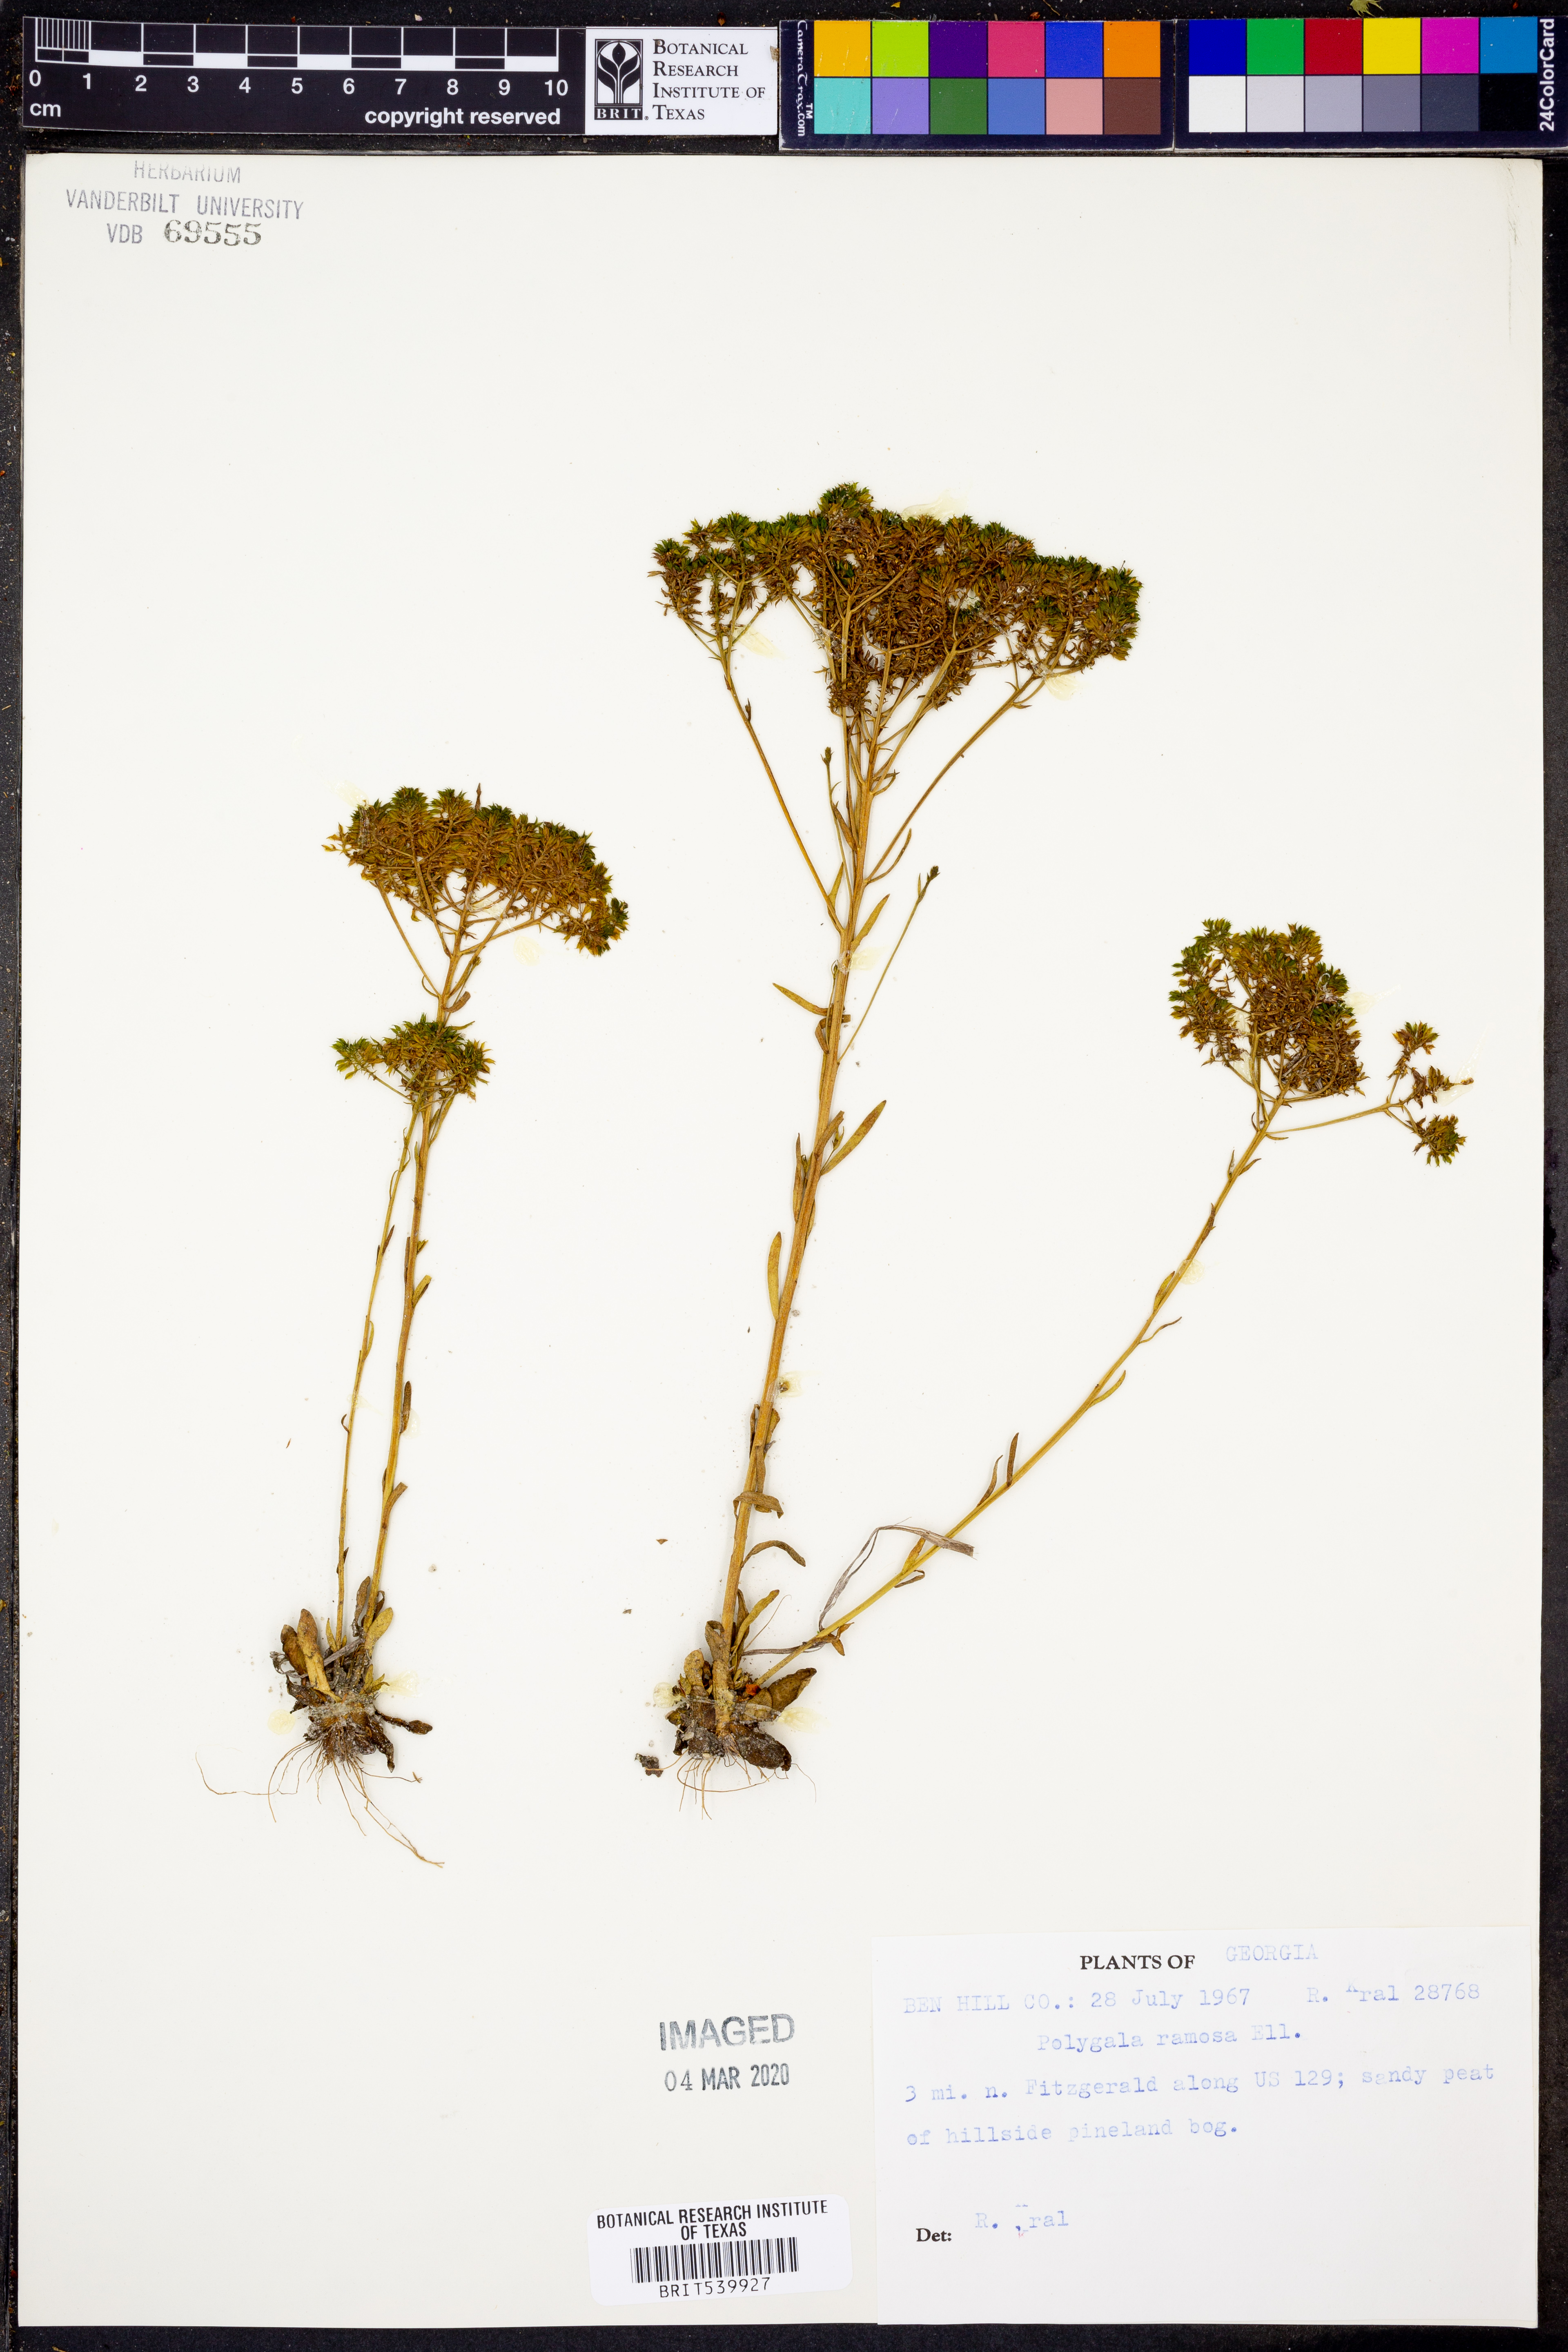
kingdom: Plantae
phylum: Tracheophyta
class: Magnoliopsida
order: Fabales
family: Polygalaceae
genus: Polygala
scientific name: Polygala ramosa
